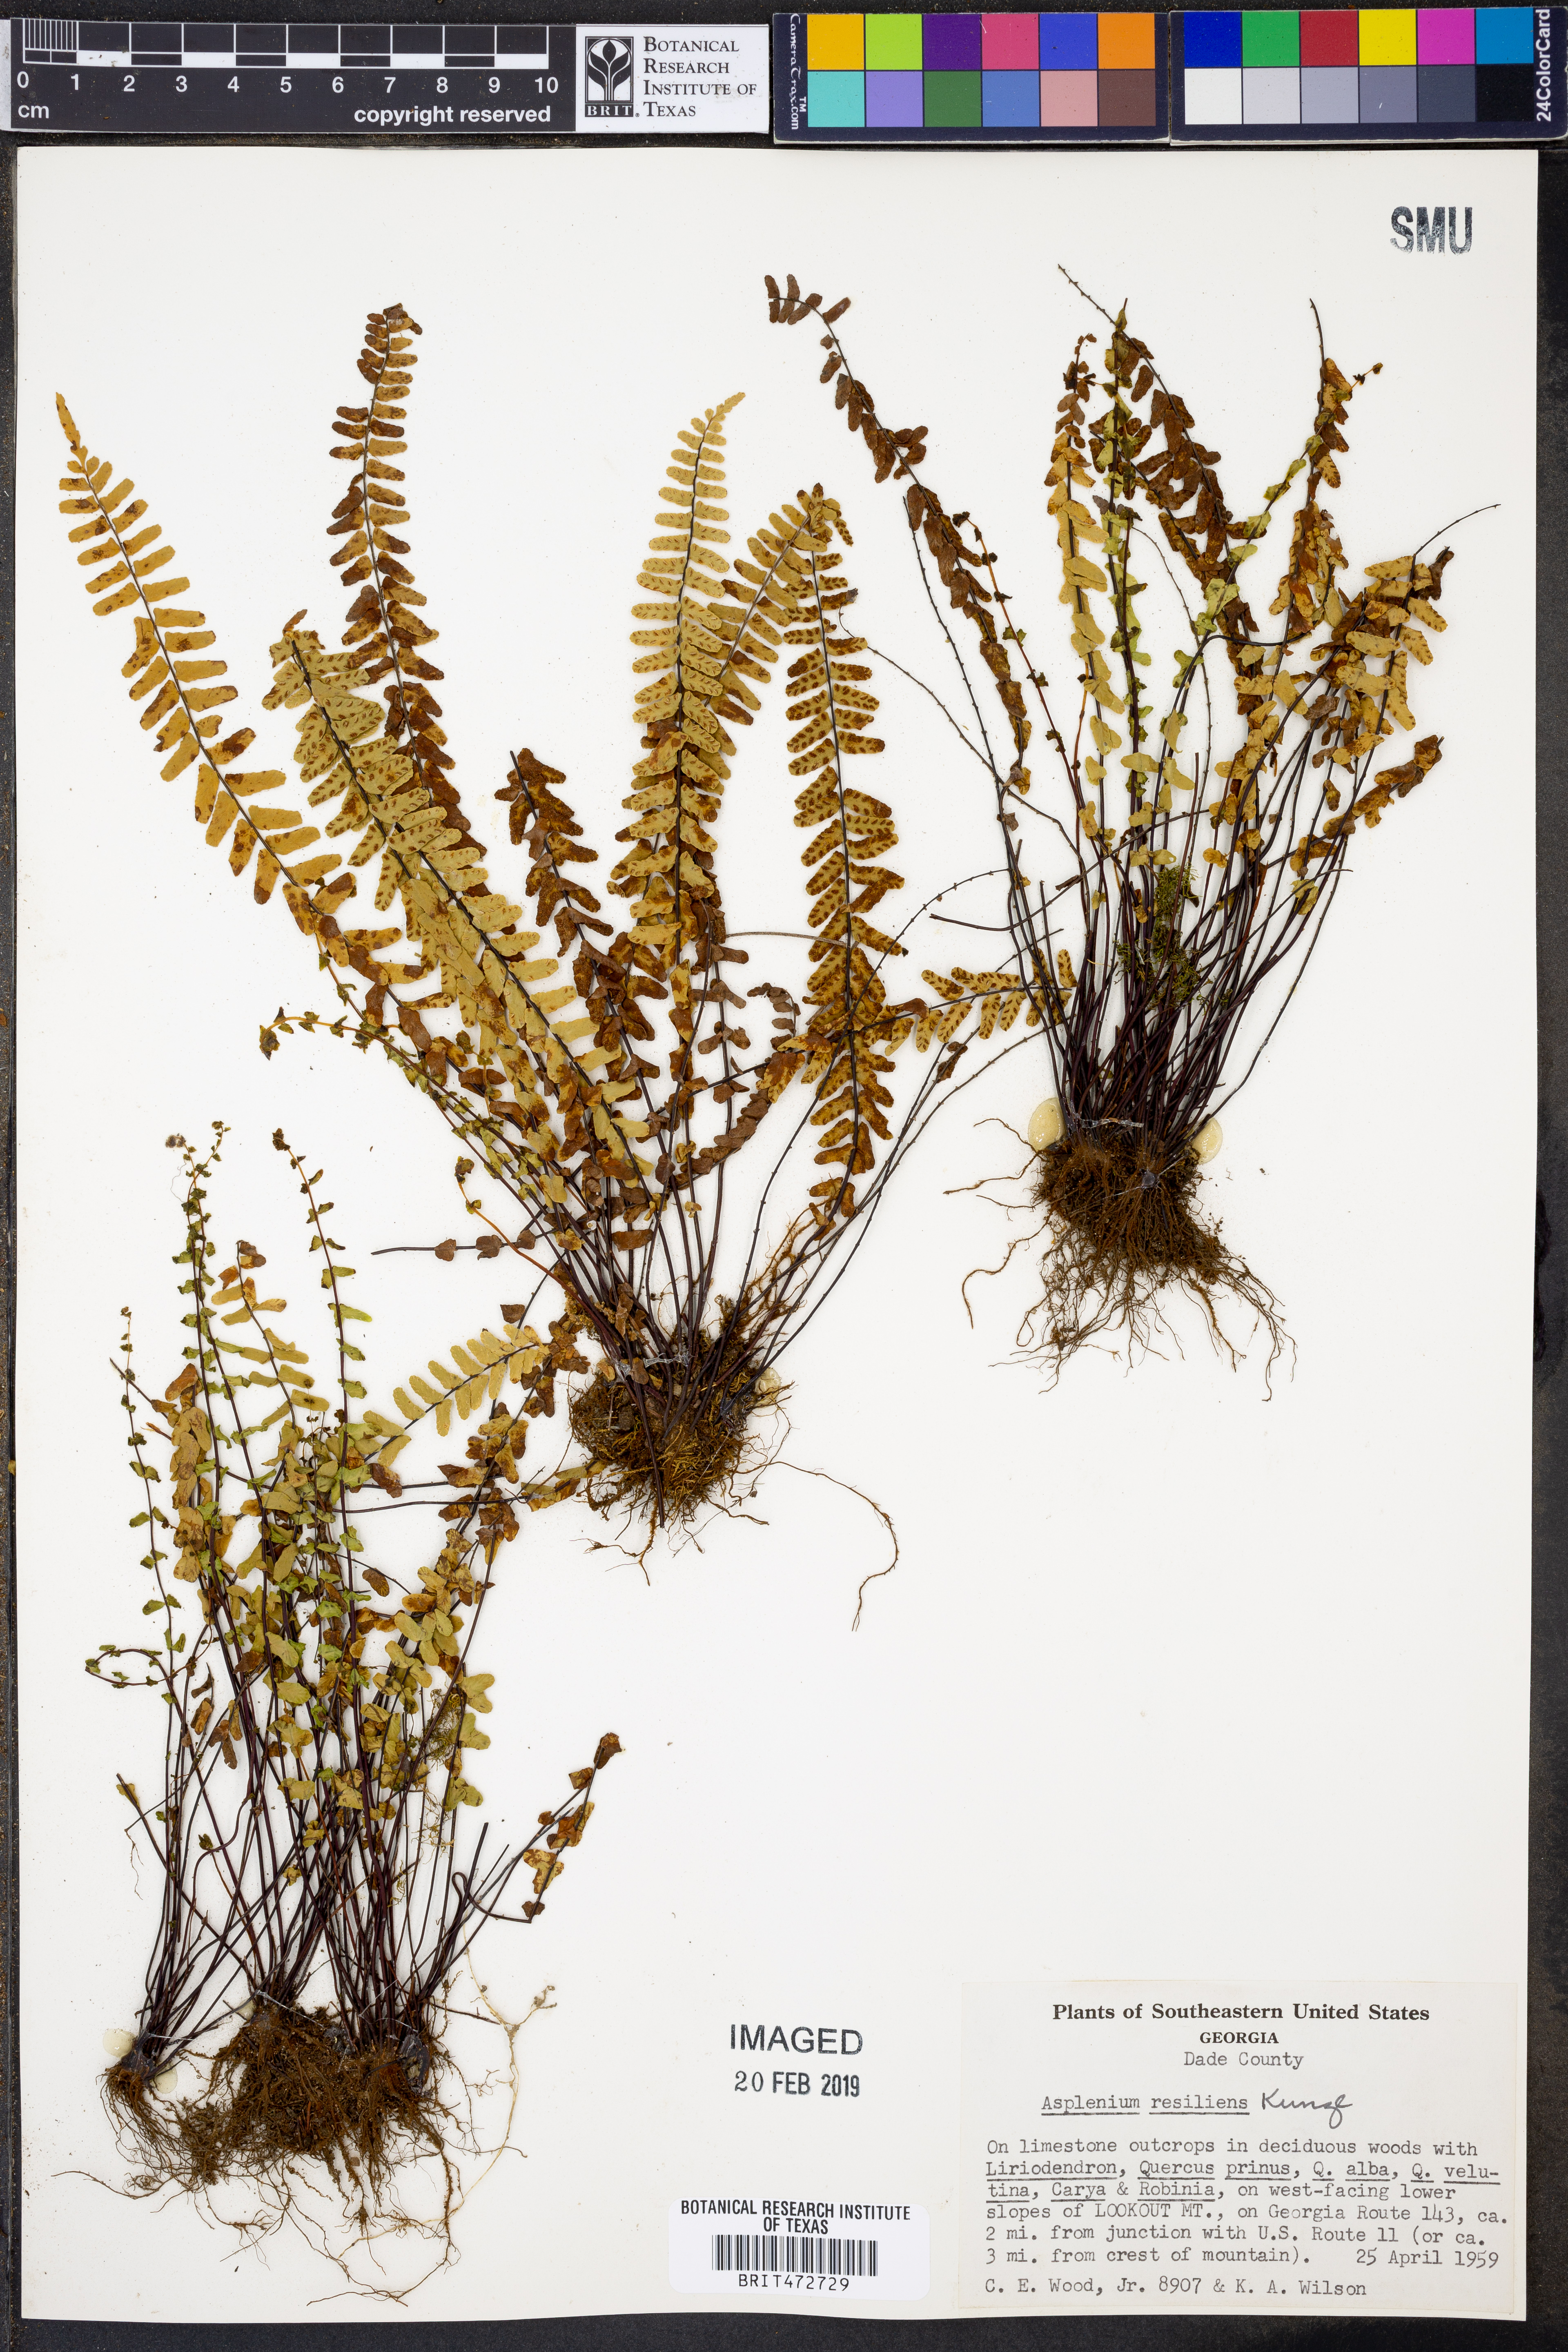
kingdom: Plantae
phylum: Tracheophyta
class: Polypodiopsida
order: Polypodiales
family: Aspleniaceae
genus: Asplenium
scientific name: Asplenium resiliens
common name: Blackstem spleenwort
